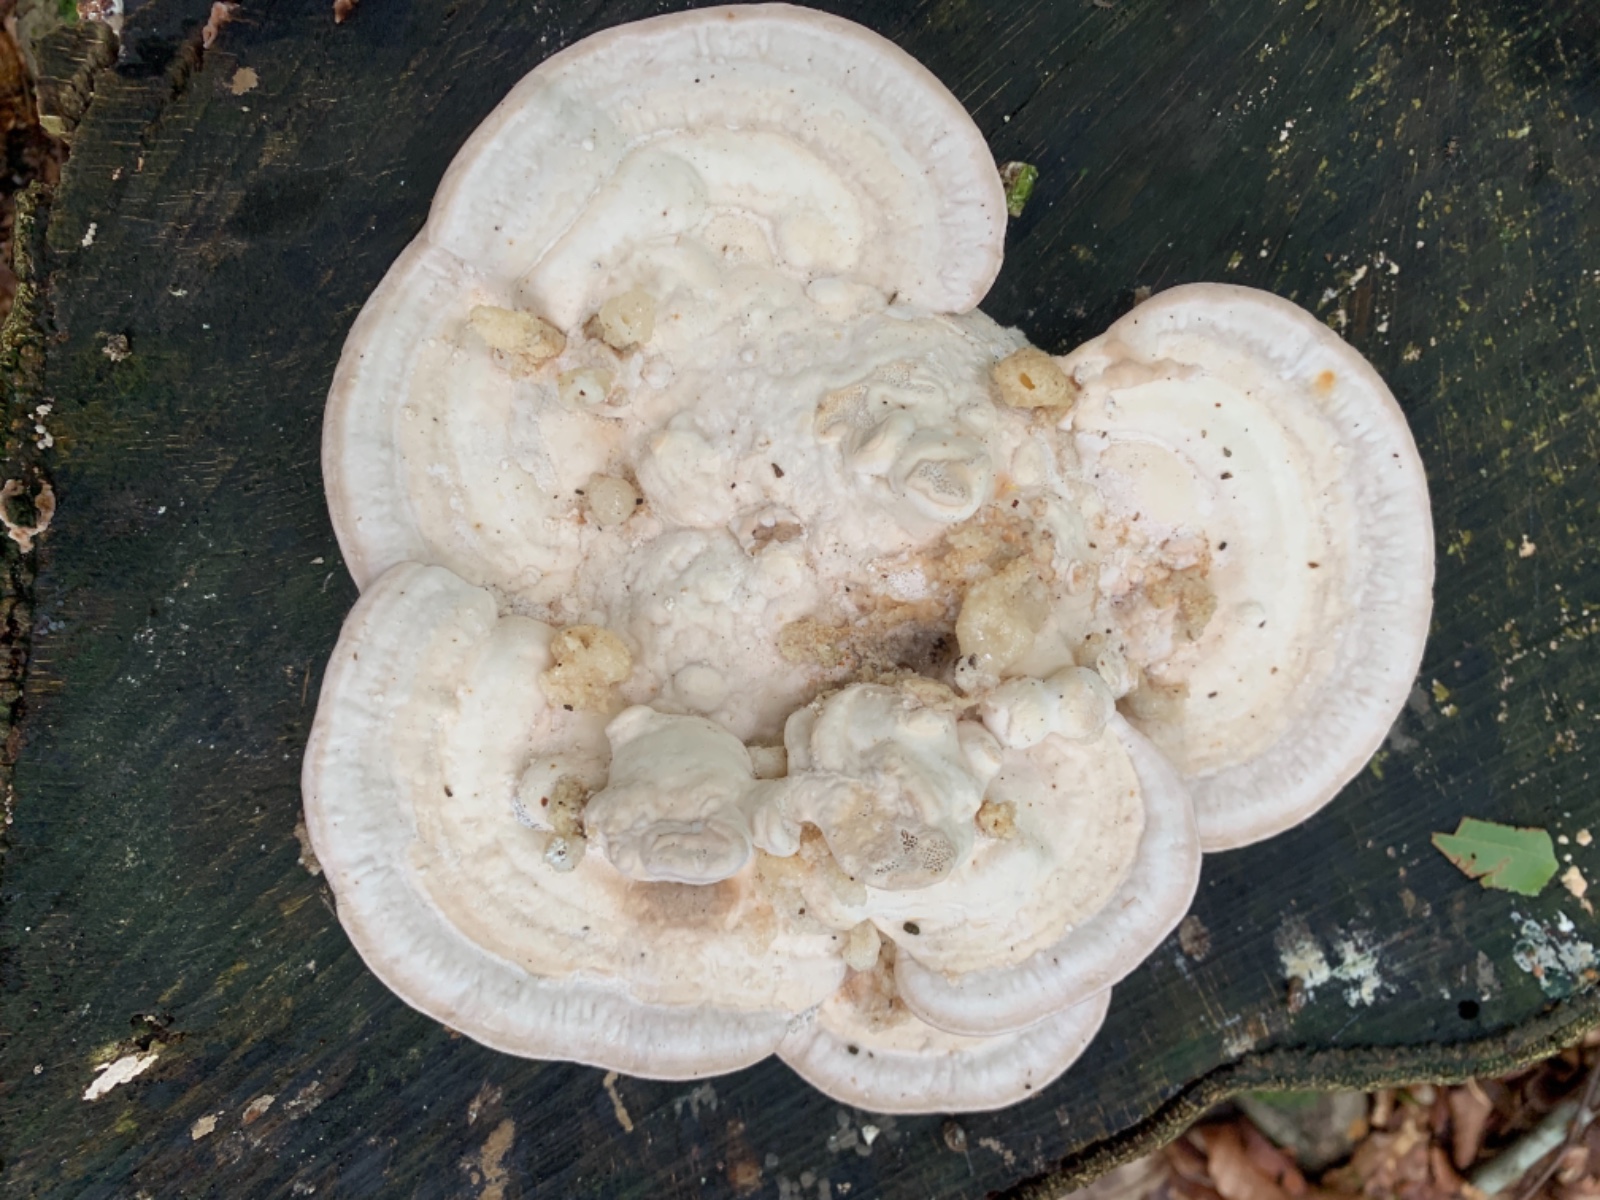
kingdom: Fungi
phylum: Basidiomycota
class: Agaricomycetes
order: Polyporales
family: Polyporaceae
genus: Trametes
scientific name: Trametes gibbosa
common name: puklet læderporesvamp
